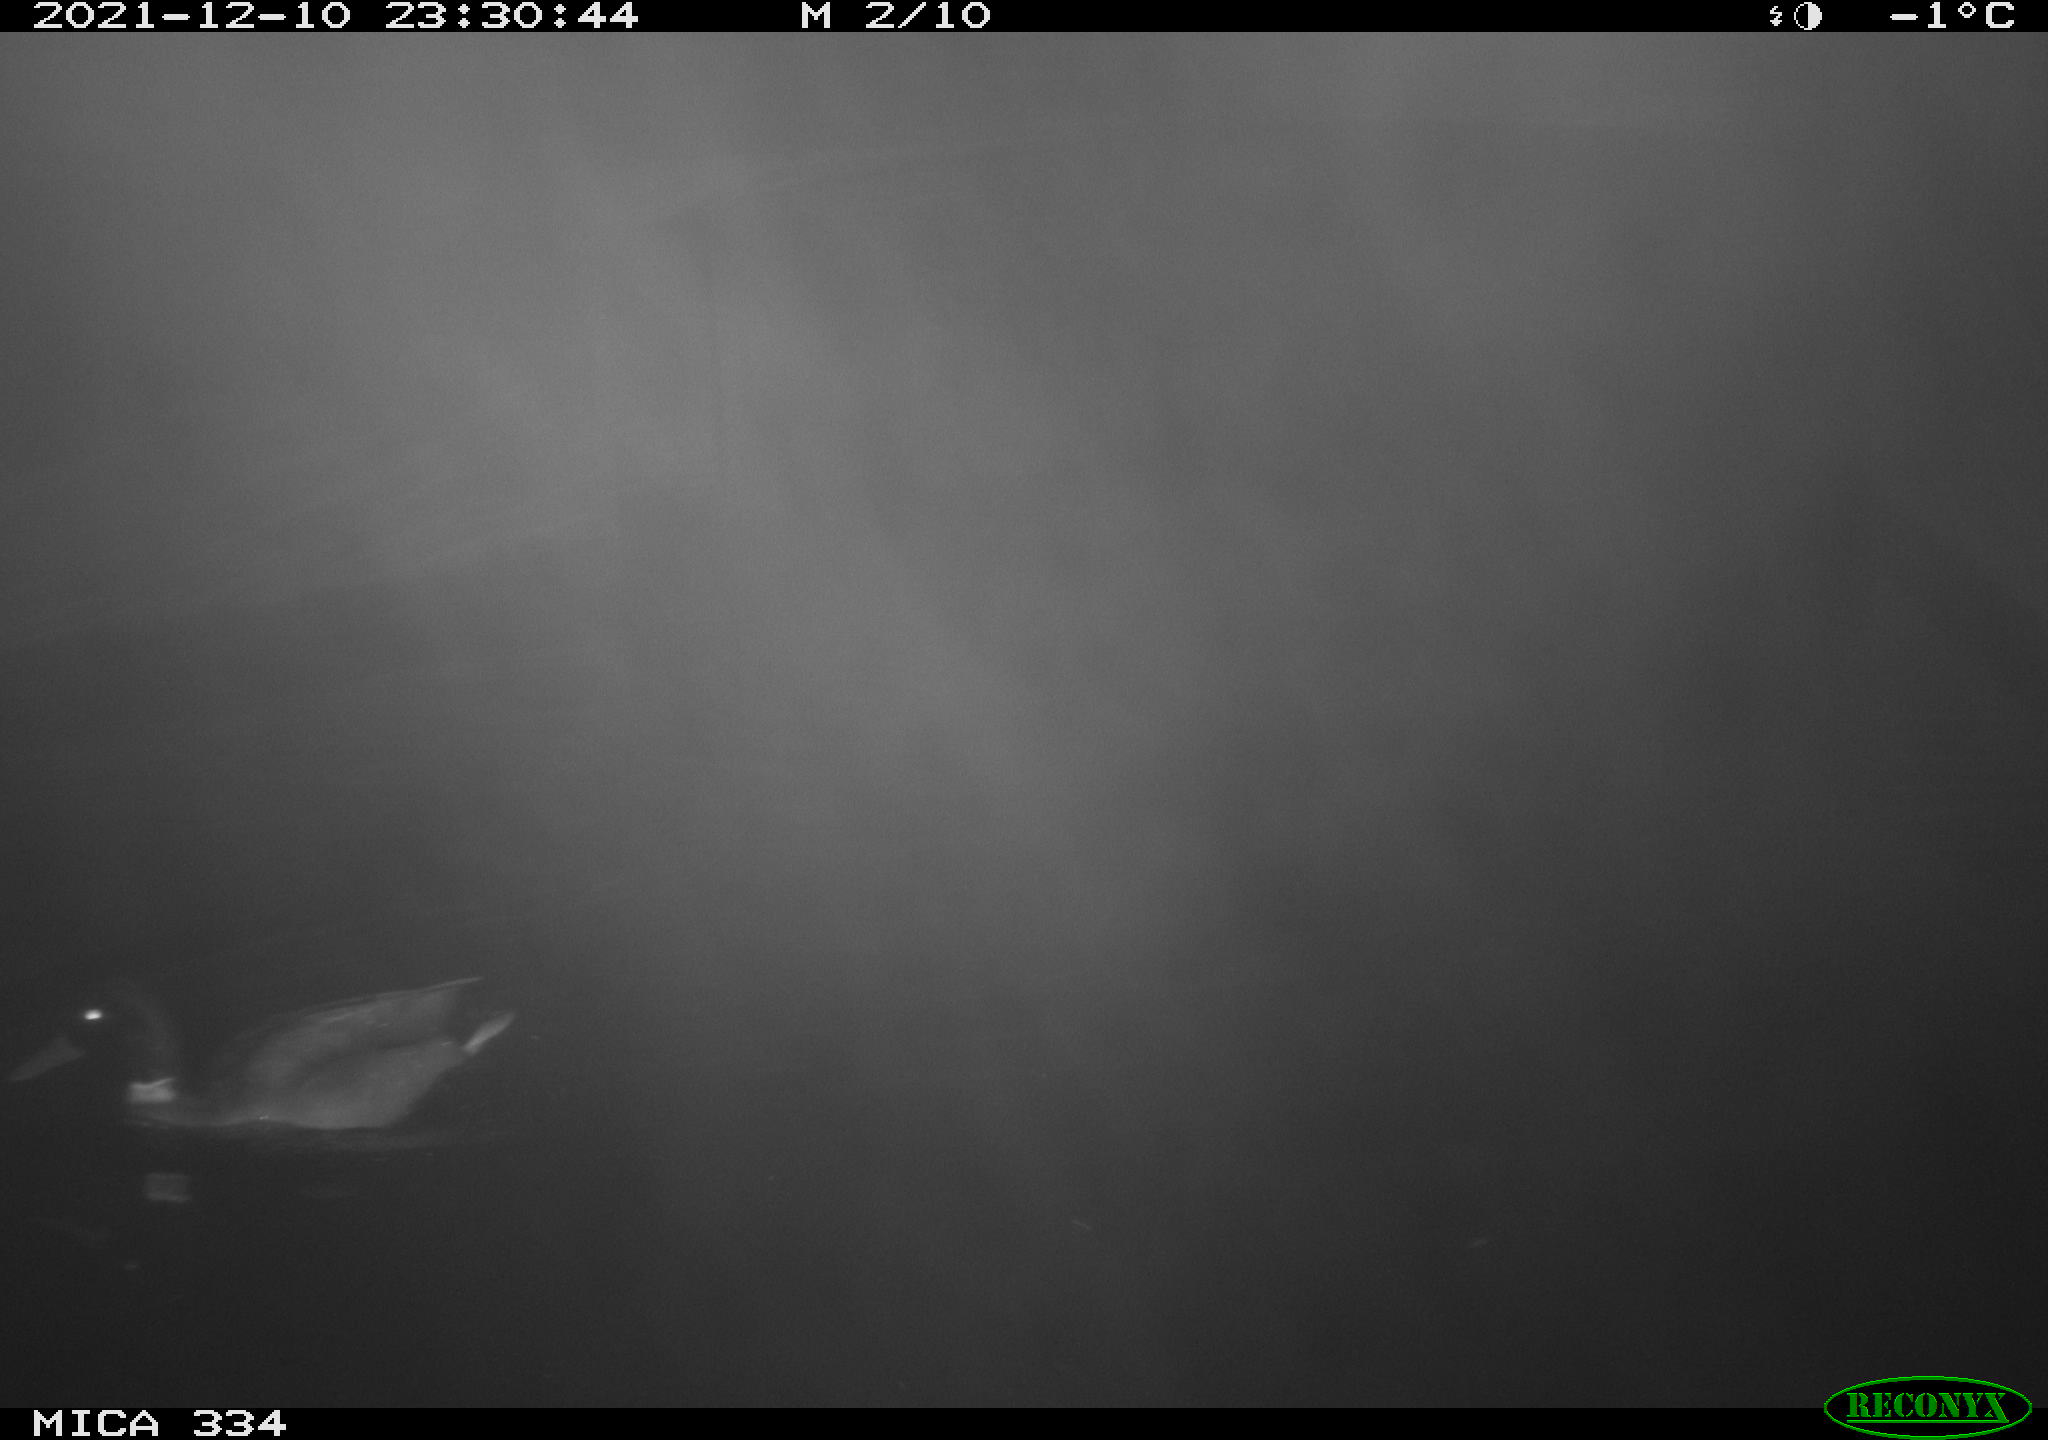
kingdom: Animalia
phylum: Chordata
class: Aves
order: Anseriformes
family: Anatidae
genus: Anas
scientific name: Anas platyrhynchos
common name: Mallard
